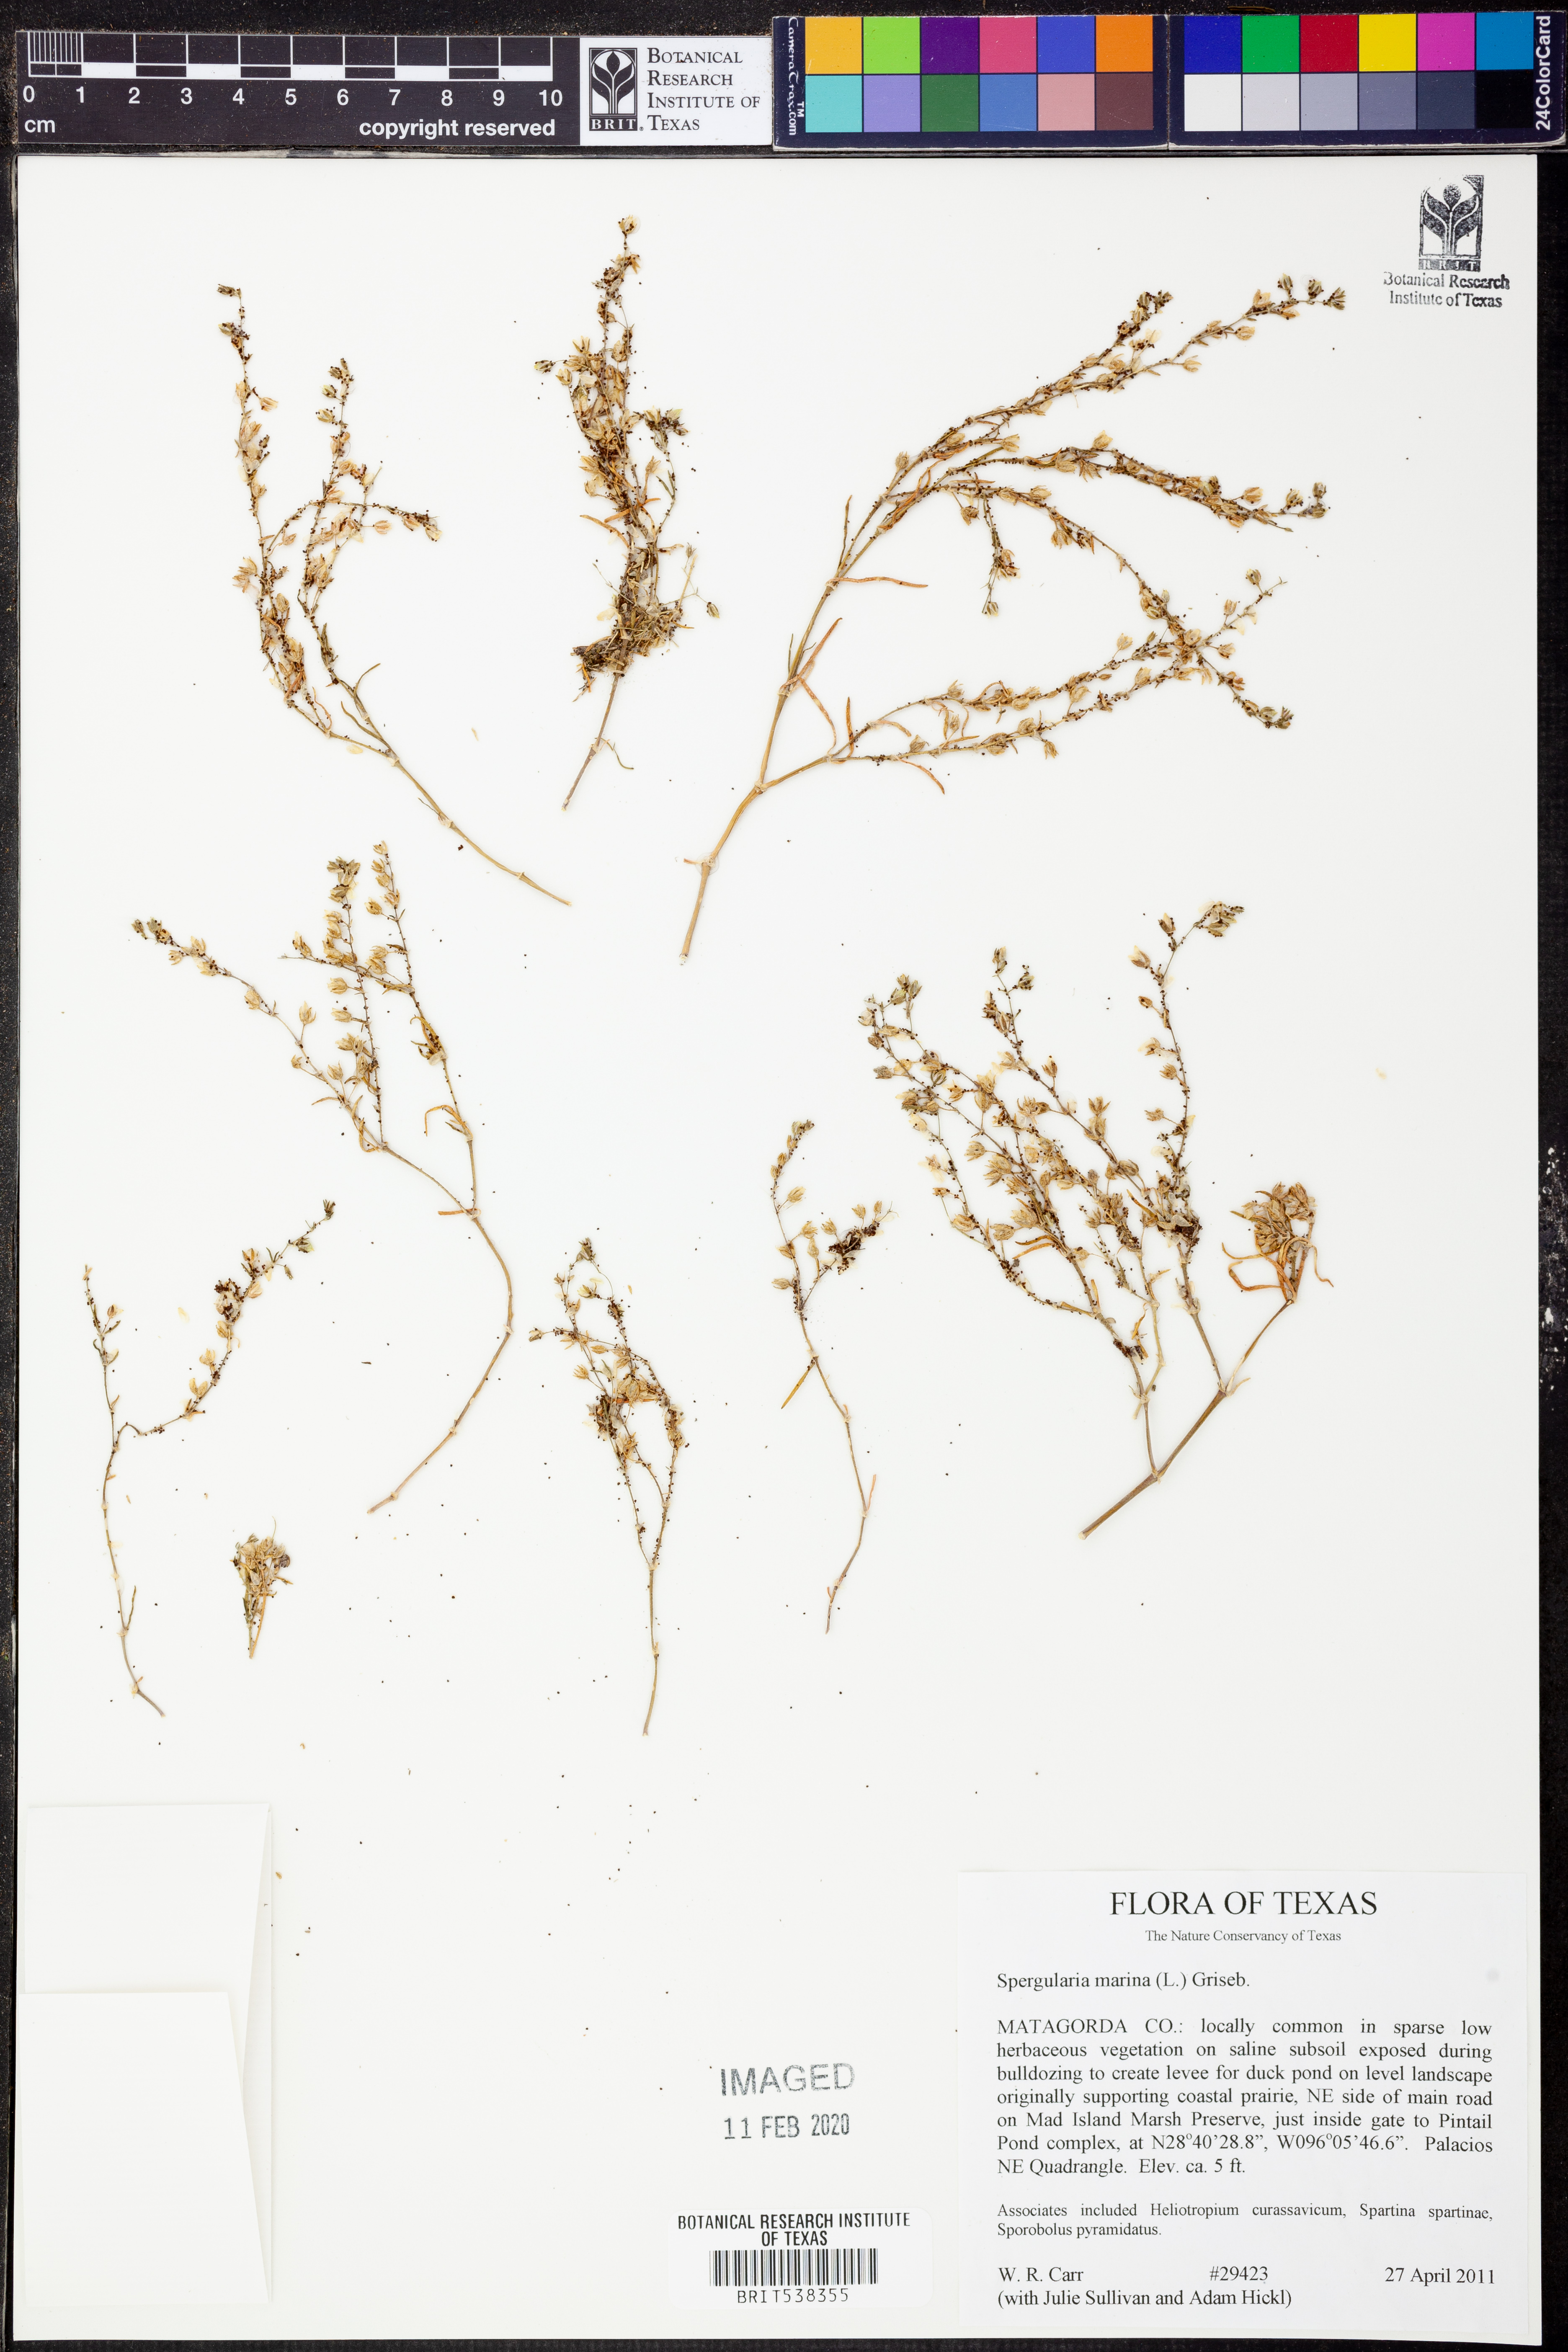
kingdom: Plantae
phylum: Tracheophyta
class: Magnoliopsida
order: Caryophyllales
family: Caryophyllaceae
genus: Spergularia
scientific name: Spergularia marina
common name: Lesser sea-spurrey
